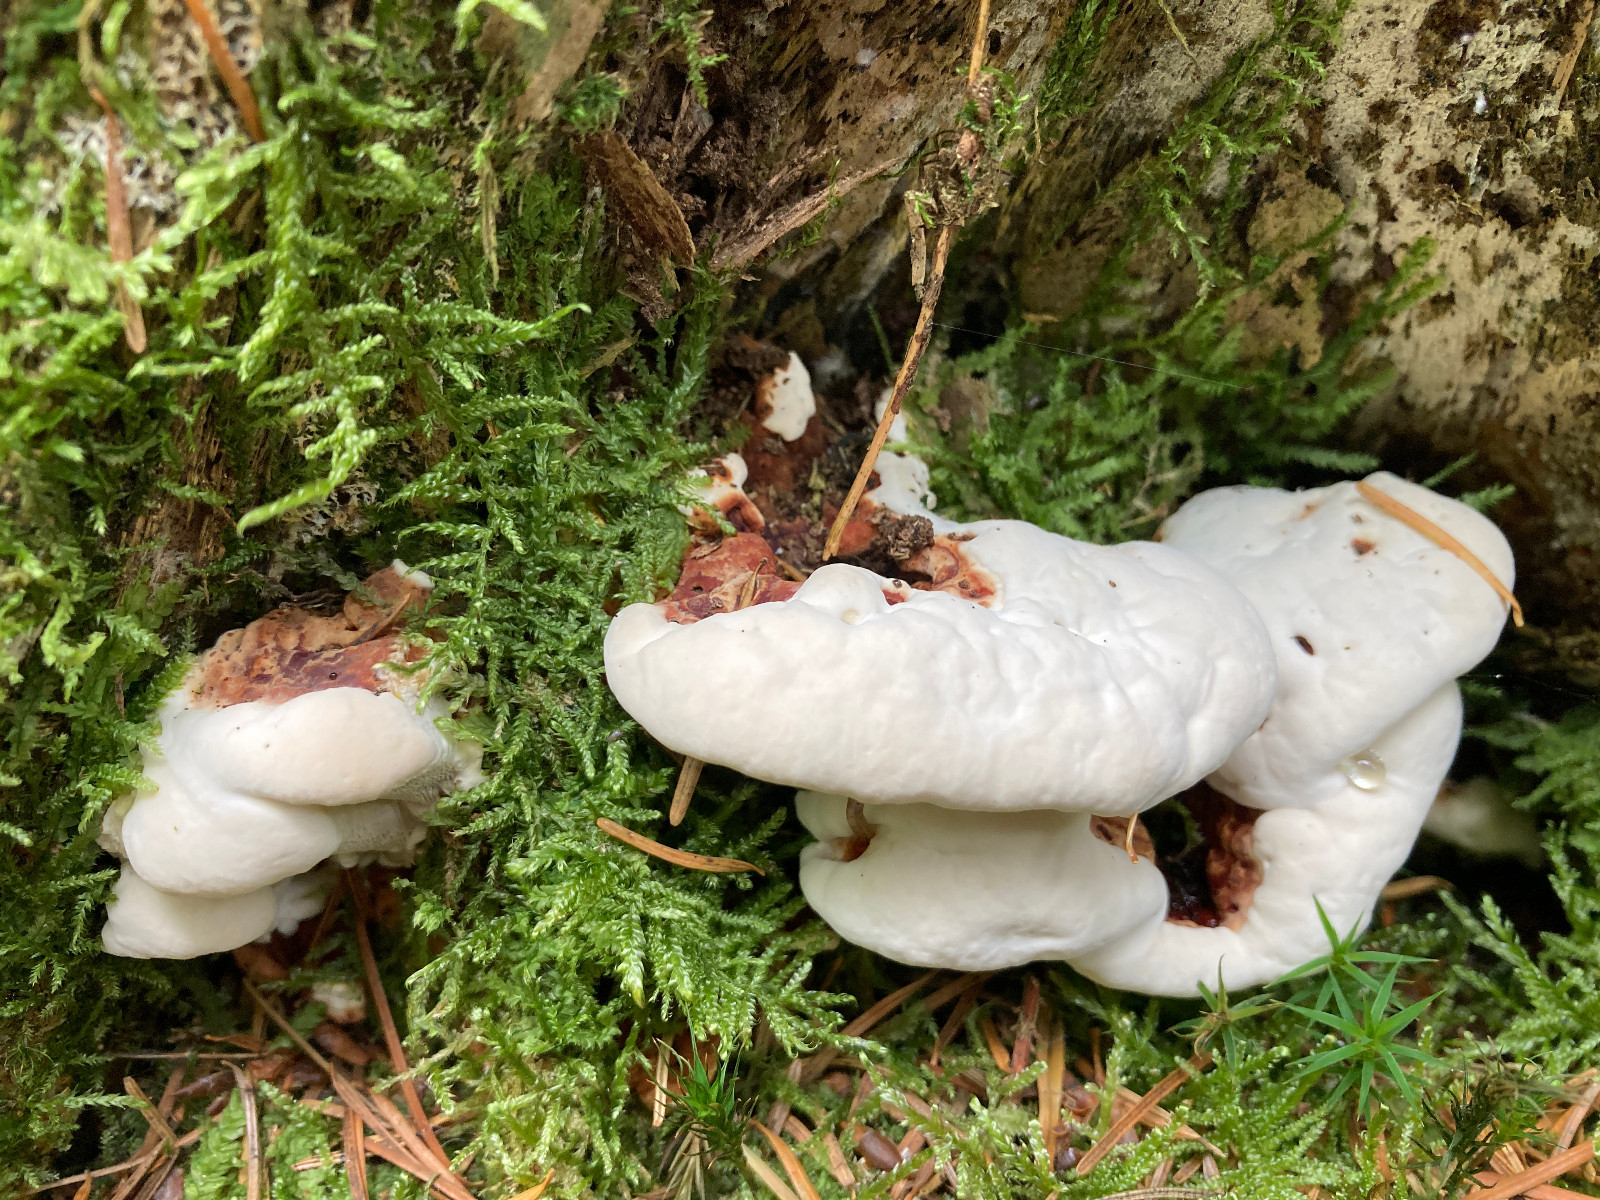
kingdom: Fungi
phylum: Basidiomycota
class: Agaricomycetes
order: Russulales
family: Bondarzewiaceae
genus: Heterobasidion
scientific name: Heterobasidion annosum
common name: almindelig rodfordærver
